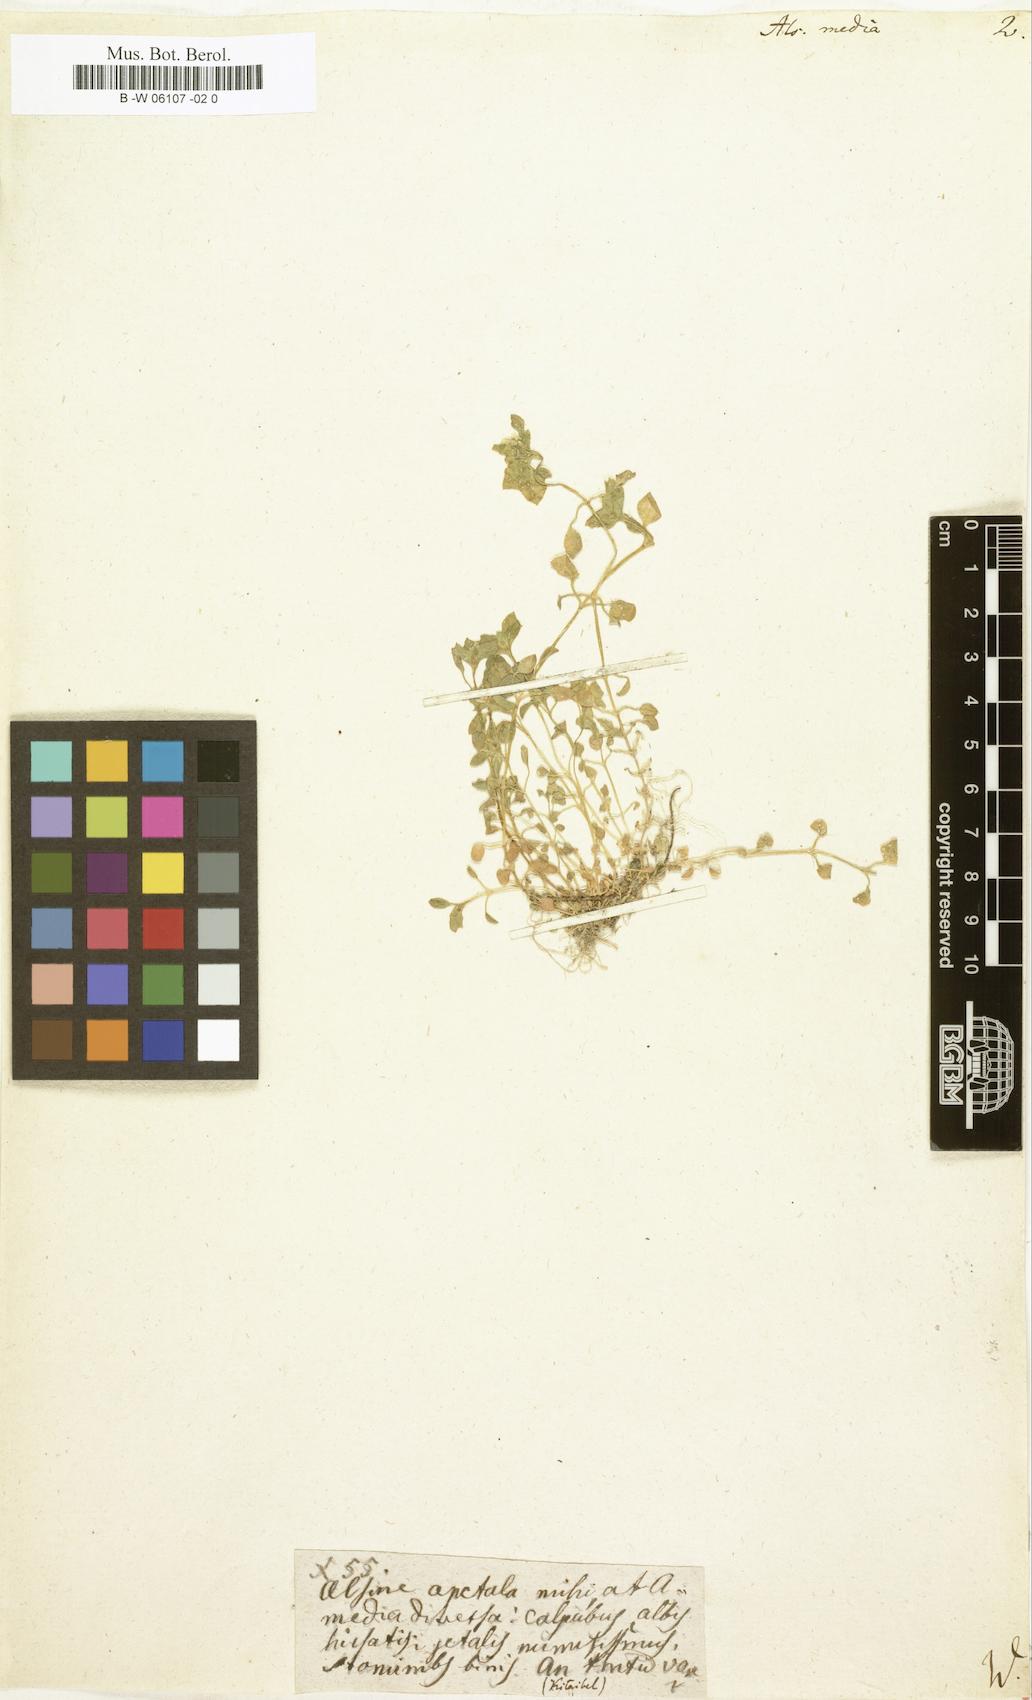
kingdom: Plantae
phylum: Tracheophyta
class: Magnoliopsida
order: Caryophyllales
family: Caryophyllaceae
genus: Stellaria
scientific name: Stellaria media
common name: Common chickweed
